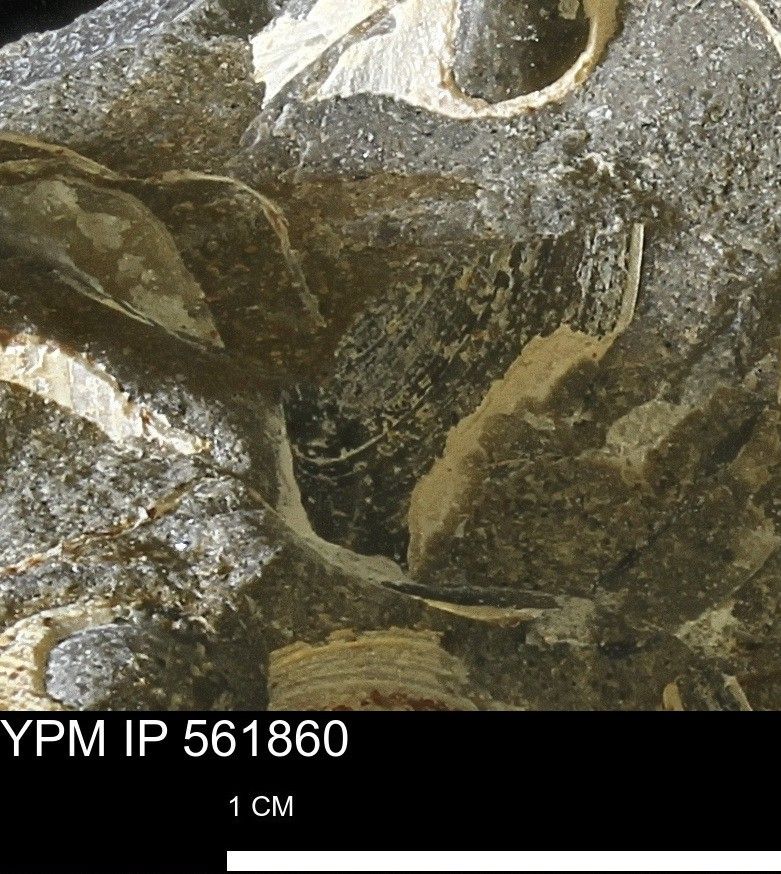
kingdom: Animalia
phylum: Mollusca
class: Bivalvia
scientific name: Bivalvia
